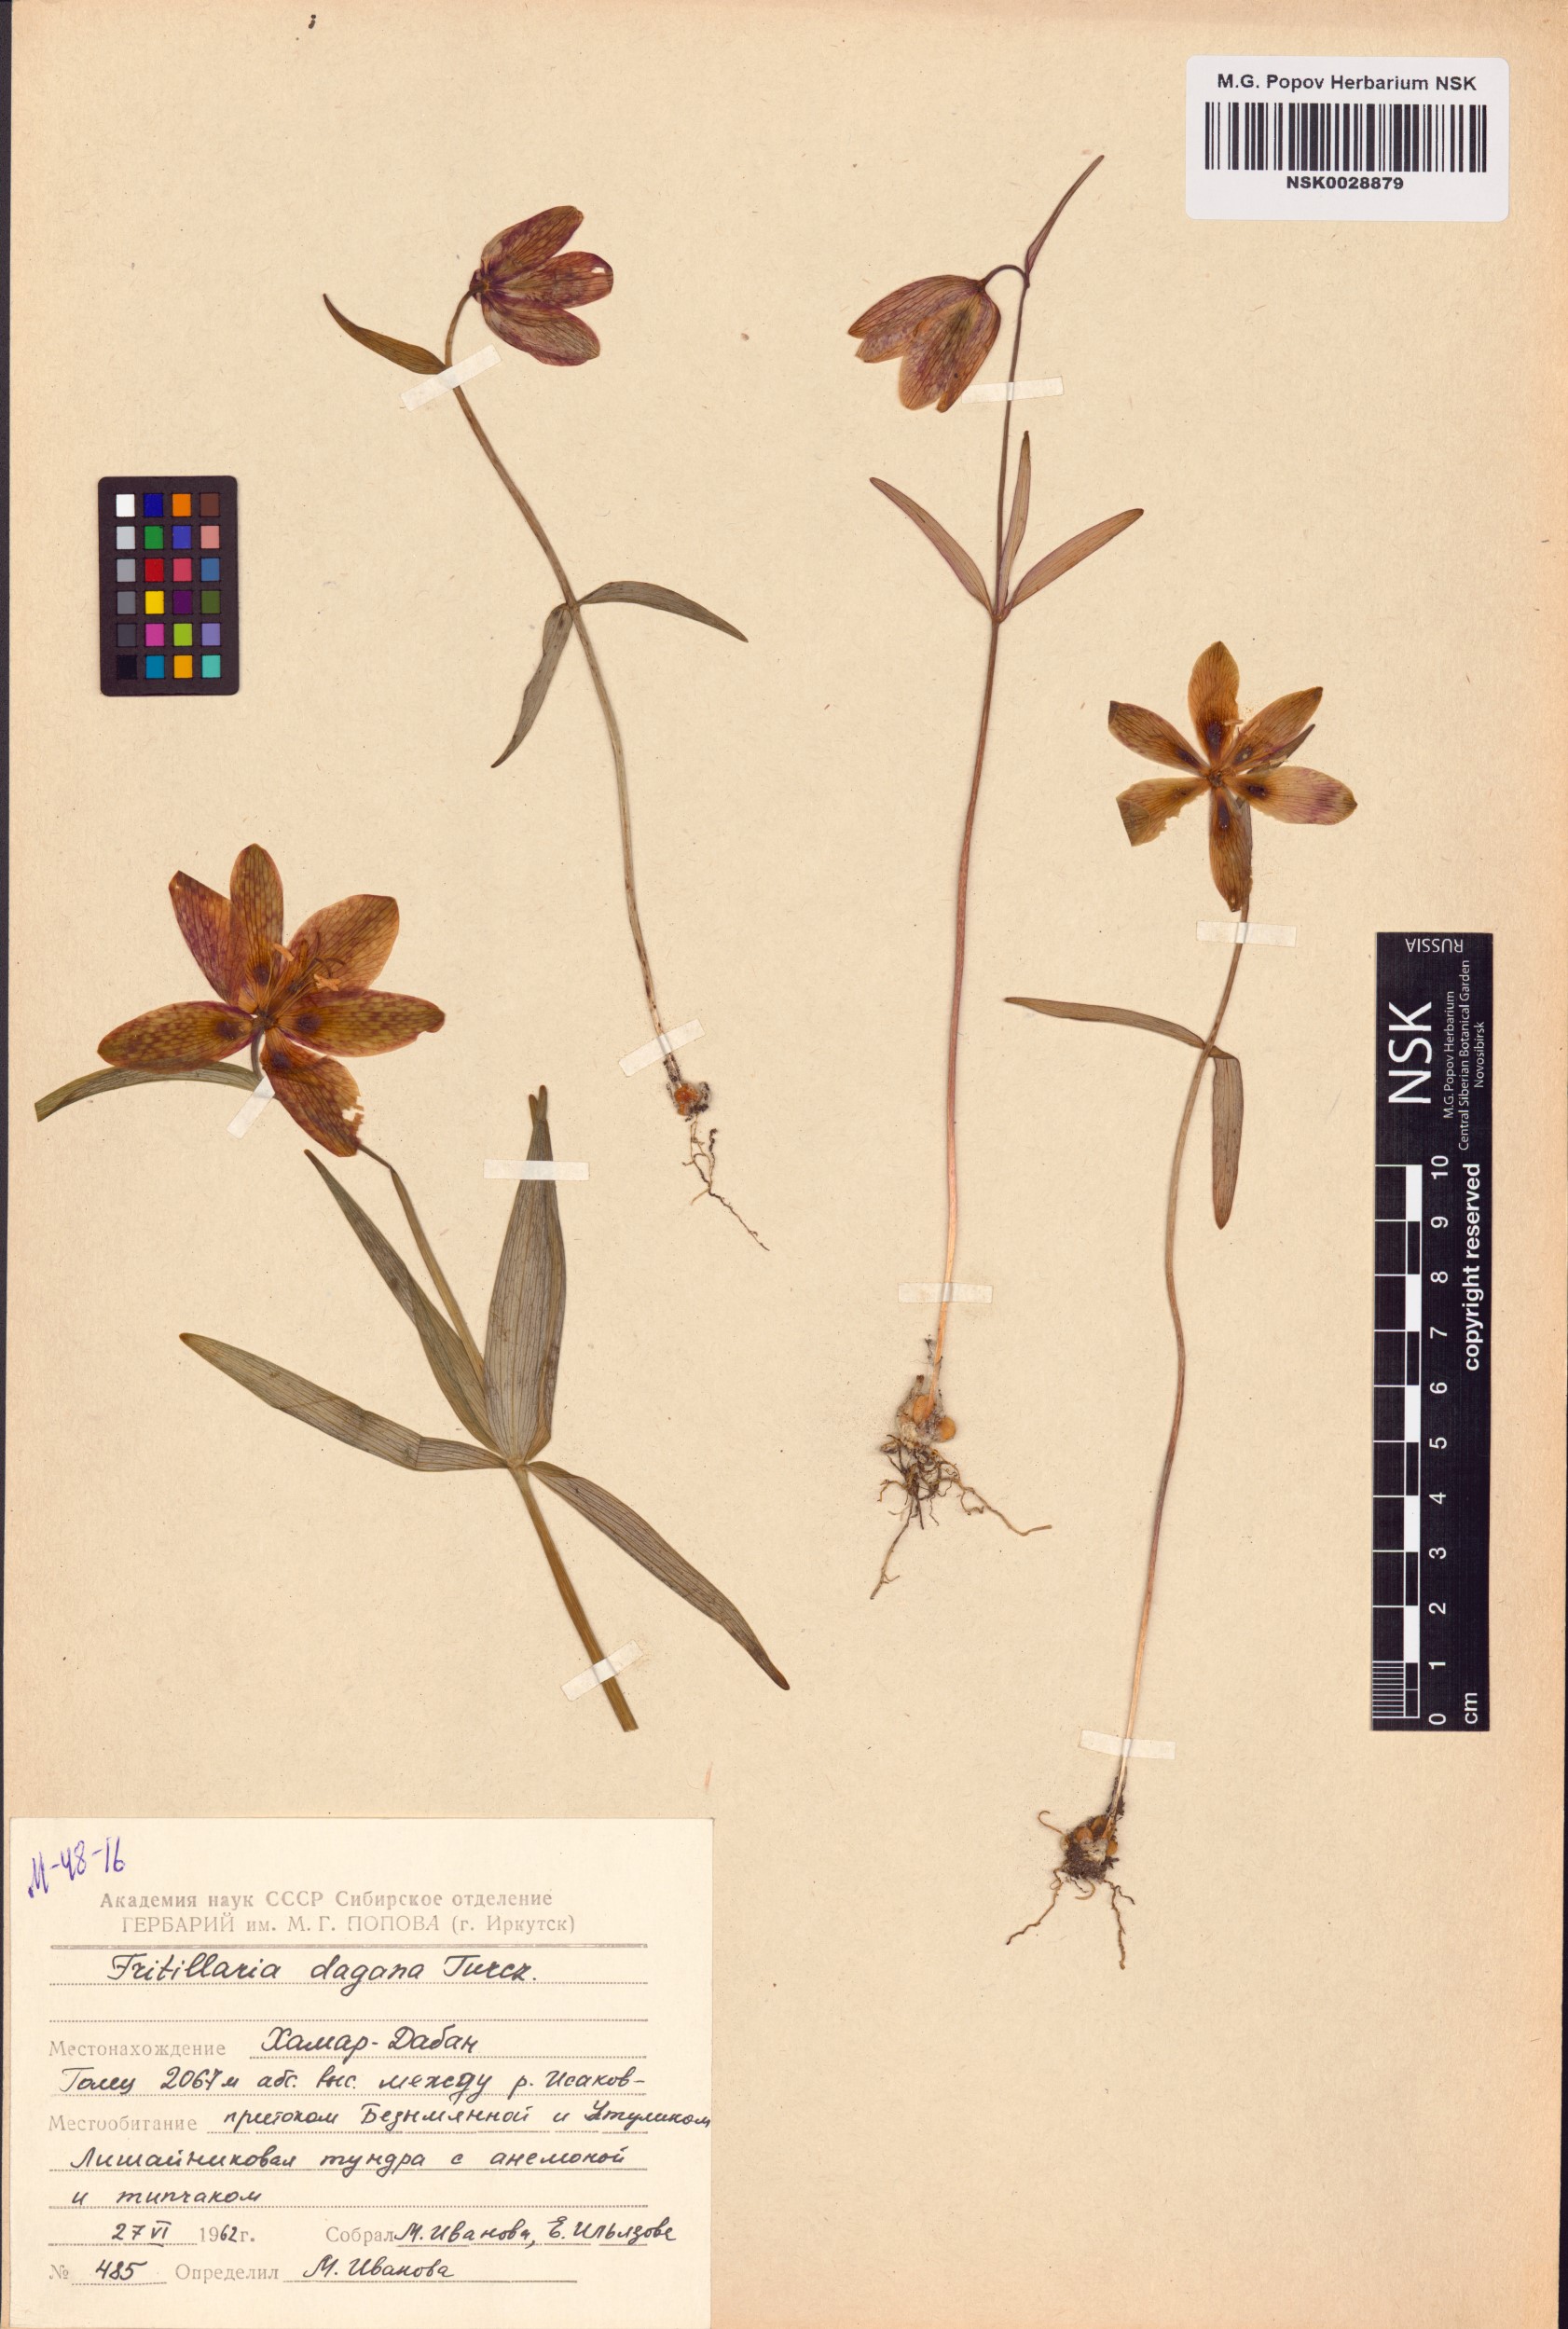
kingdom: Plantae
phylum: Tracheophyta
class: Liliopsida
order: Liliales
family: Liliaceae
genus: Fritillaria
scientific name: Fritillaria dagana
